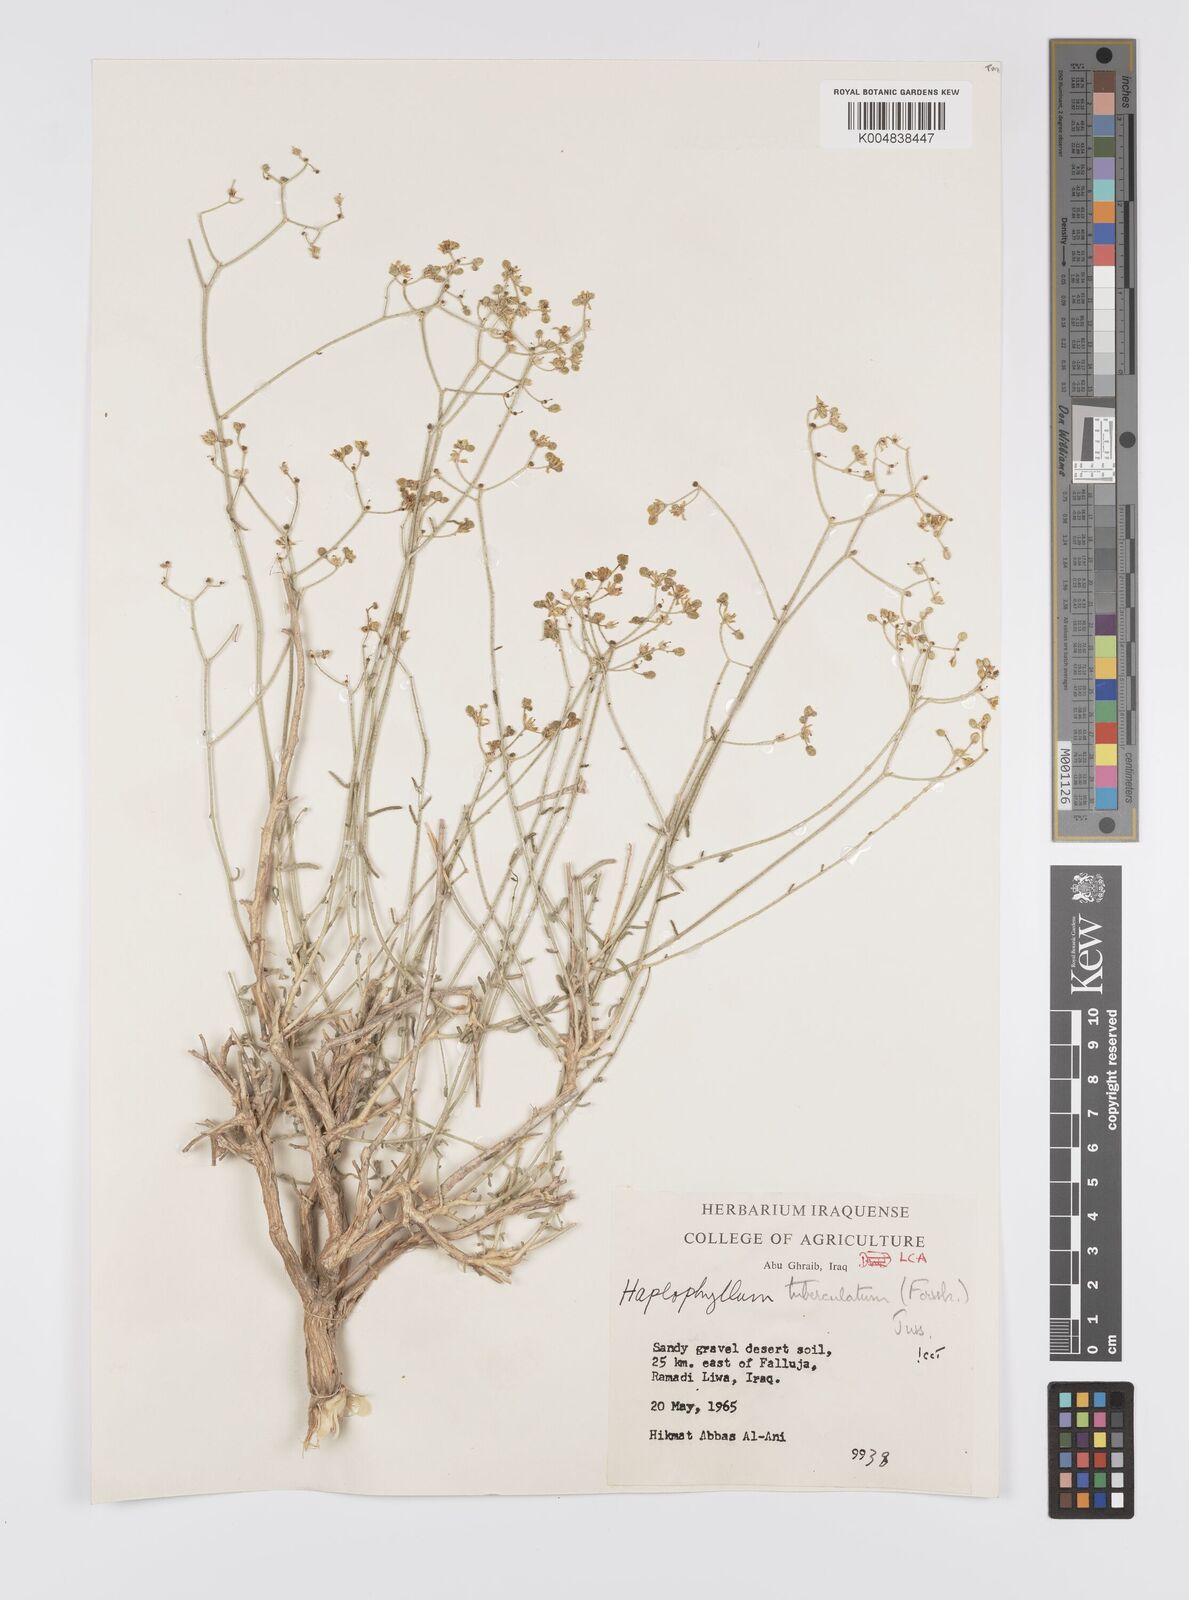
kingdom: Plantae
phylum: Tracheophyta
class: Magnoliopsida
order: Sapindales
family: Rutaceae
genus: Haplophyllum
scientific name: Haplophyllum tuberculatum
